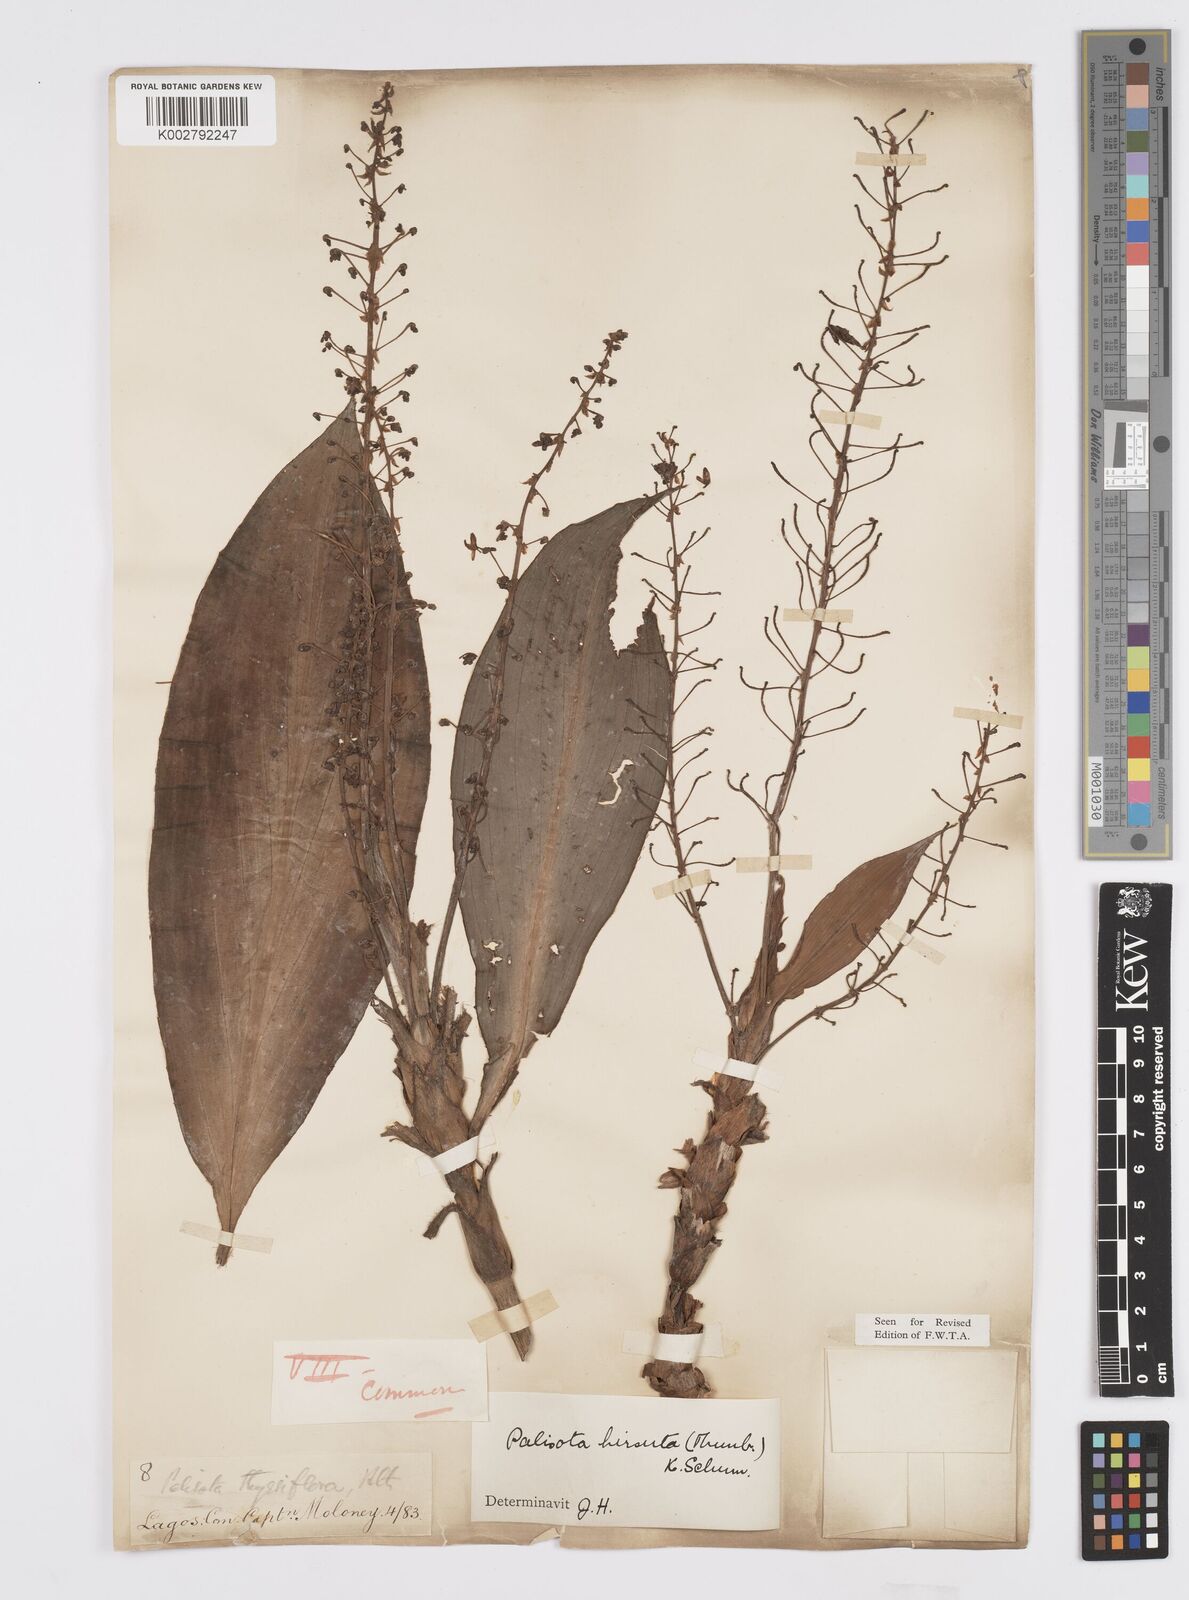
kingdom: Plantae
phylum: Tracheophyta
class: Liliopsida
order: Commelinales
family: Commelinaceae
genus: Palisota
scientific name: Palisota hirsuta
